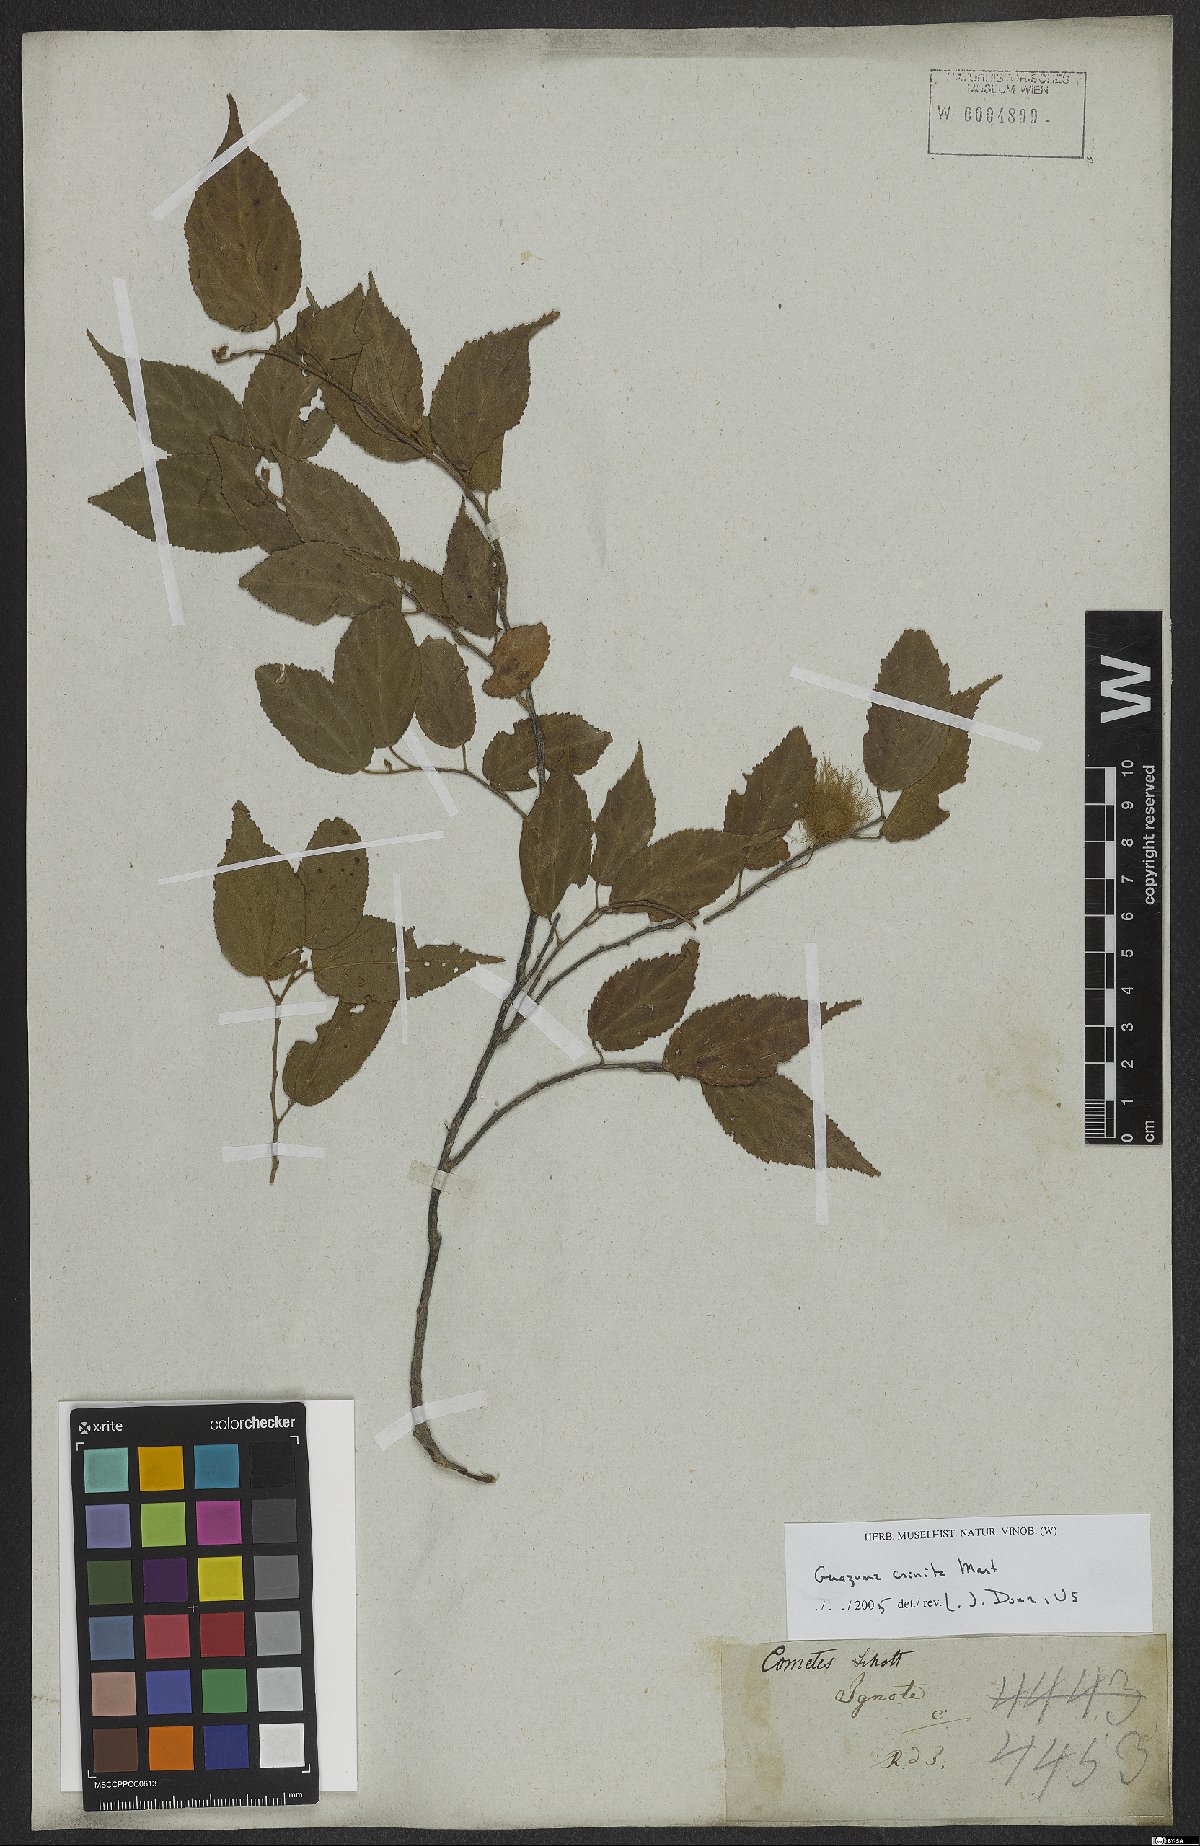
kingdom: Plantae
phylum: Tracheophyta
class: Magnoliopsida
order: Malvales
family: Malvaceae
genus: Guazuma
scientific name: Guazuma crinita
